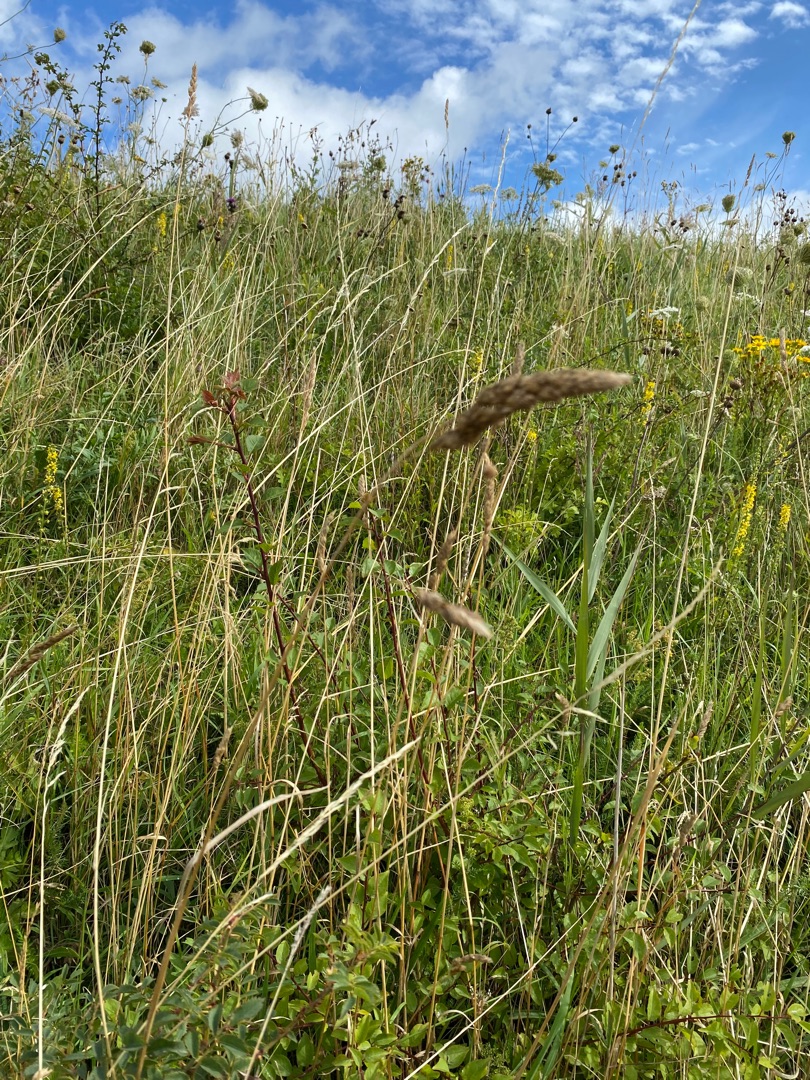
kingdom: Plantae
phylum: Tracheophyta
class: Liliopsida
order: Poales
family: Poaceae
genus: Dactylis
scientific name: Dactylis glomerata
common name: Almindelig hundegræs
